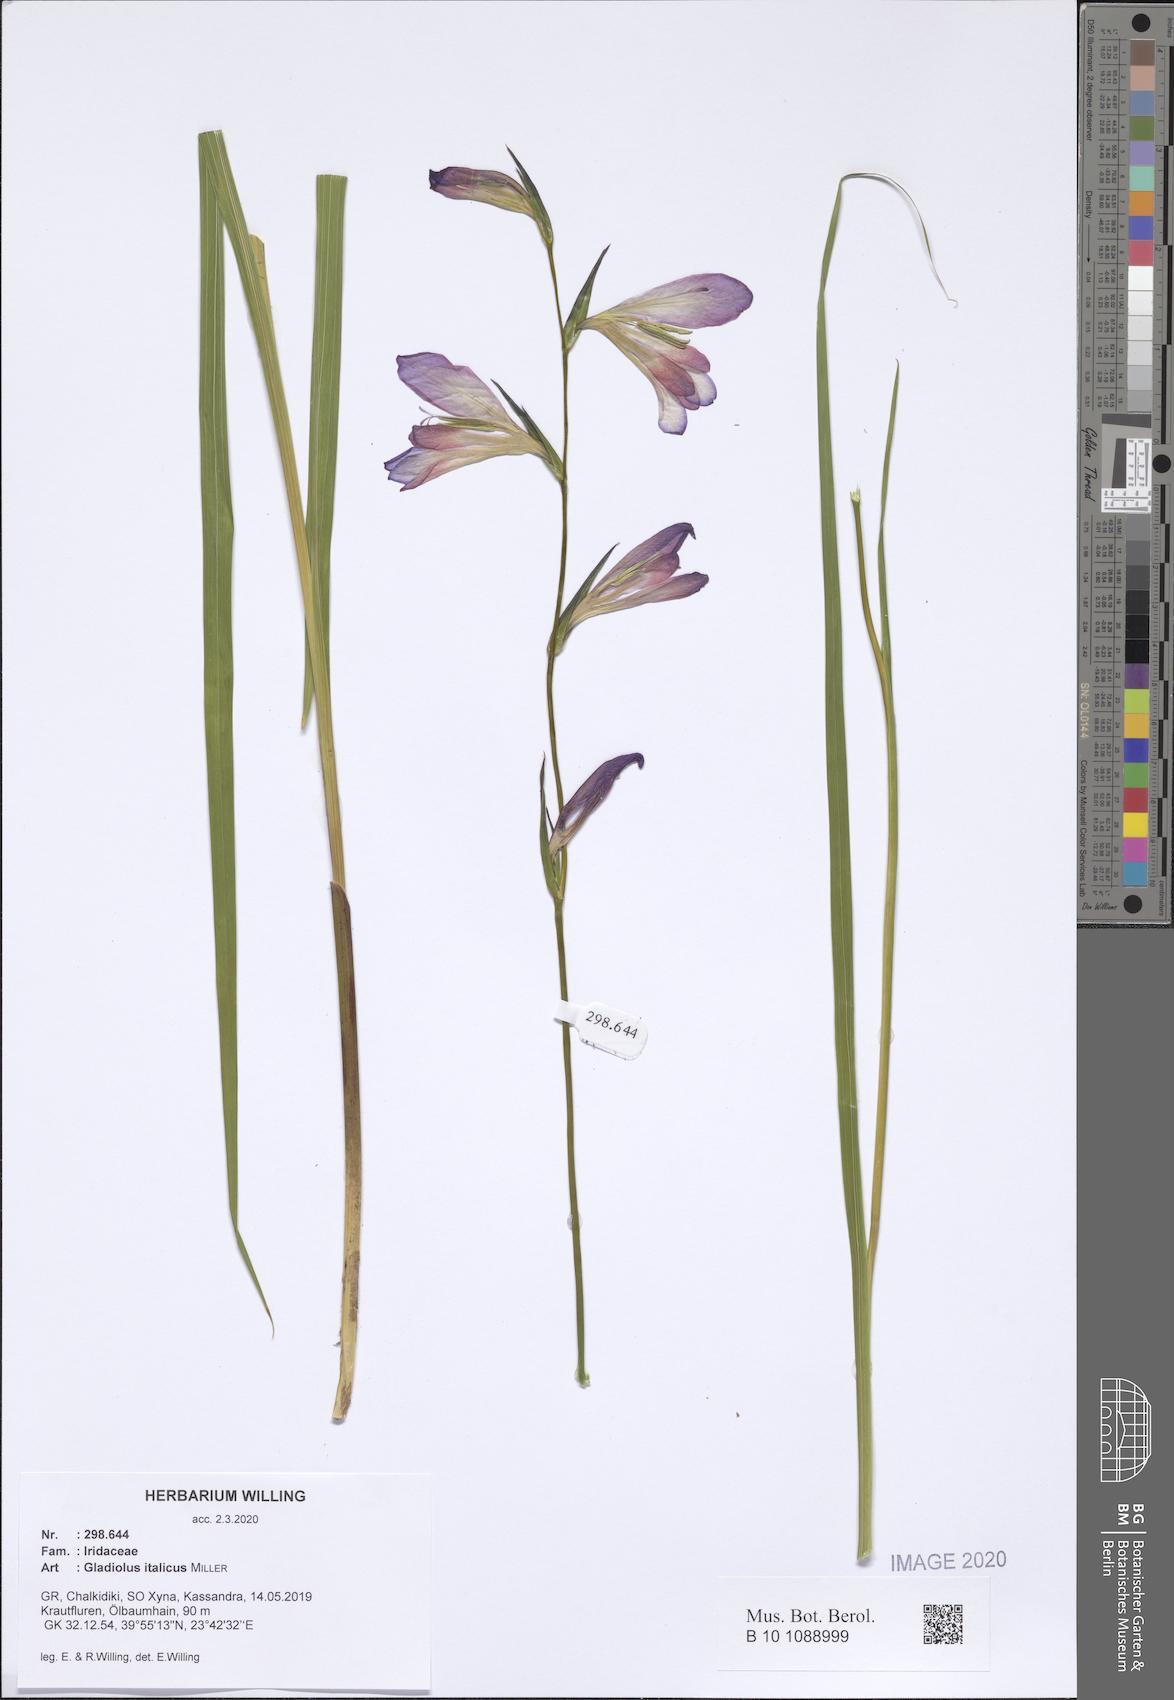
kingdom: Plantae
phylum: Tracheophyta
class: Liliopsida
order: Asparagales
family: Iridaceae
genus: Gladiolus
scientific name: Gladiolus italicus
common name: Field gladiolus
